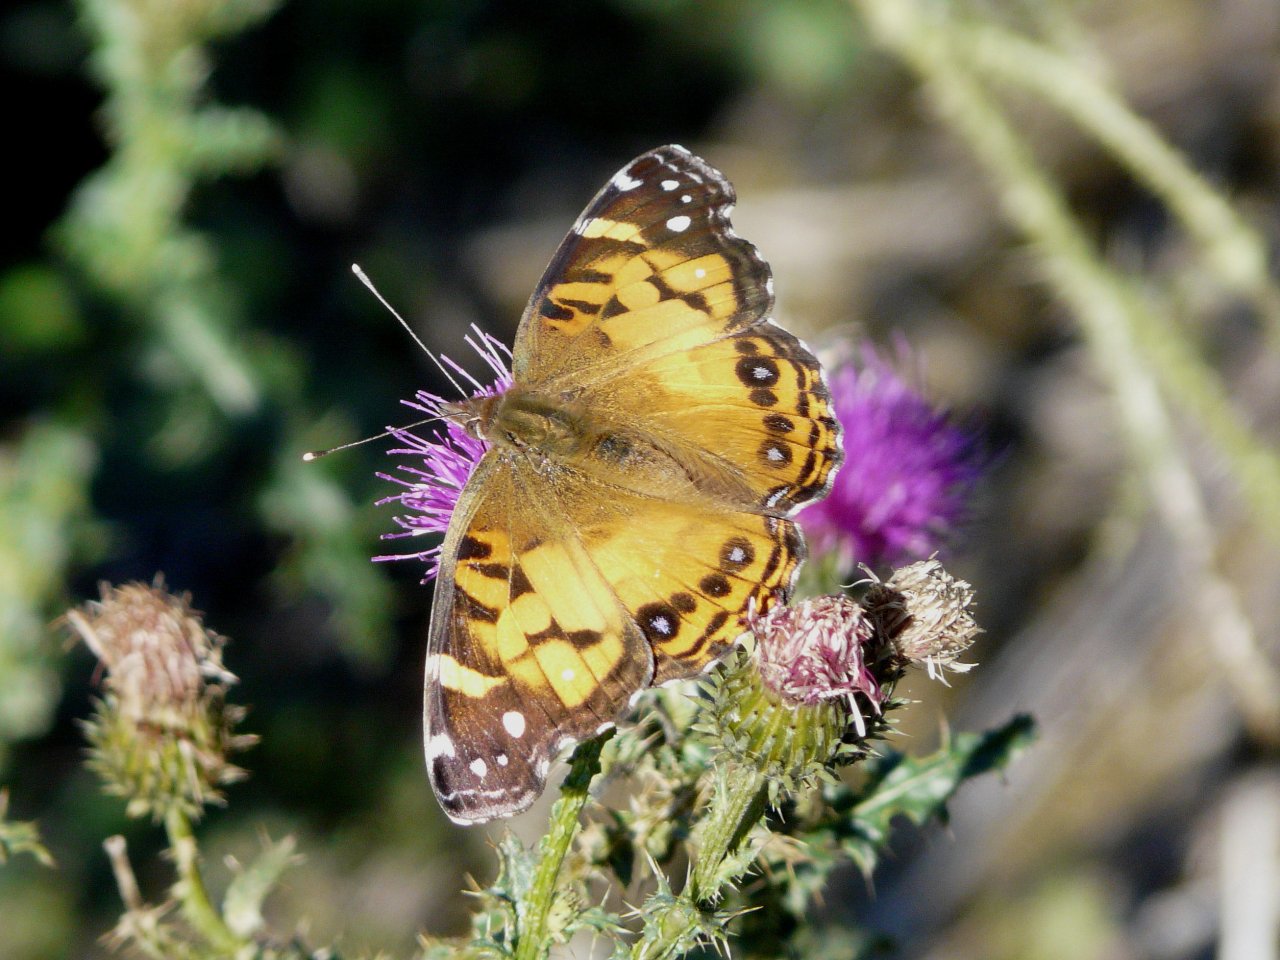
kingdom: Animalia
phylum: Arthropoda
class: Insecta
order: Lepidoptera
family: Nymphalidae
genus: Vanessa
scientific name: Vanessa virginiensis
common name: American Lady
